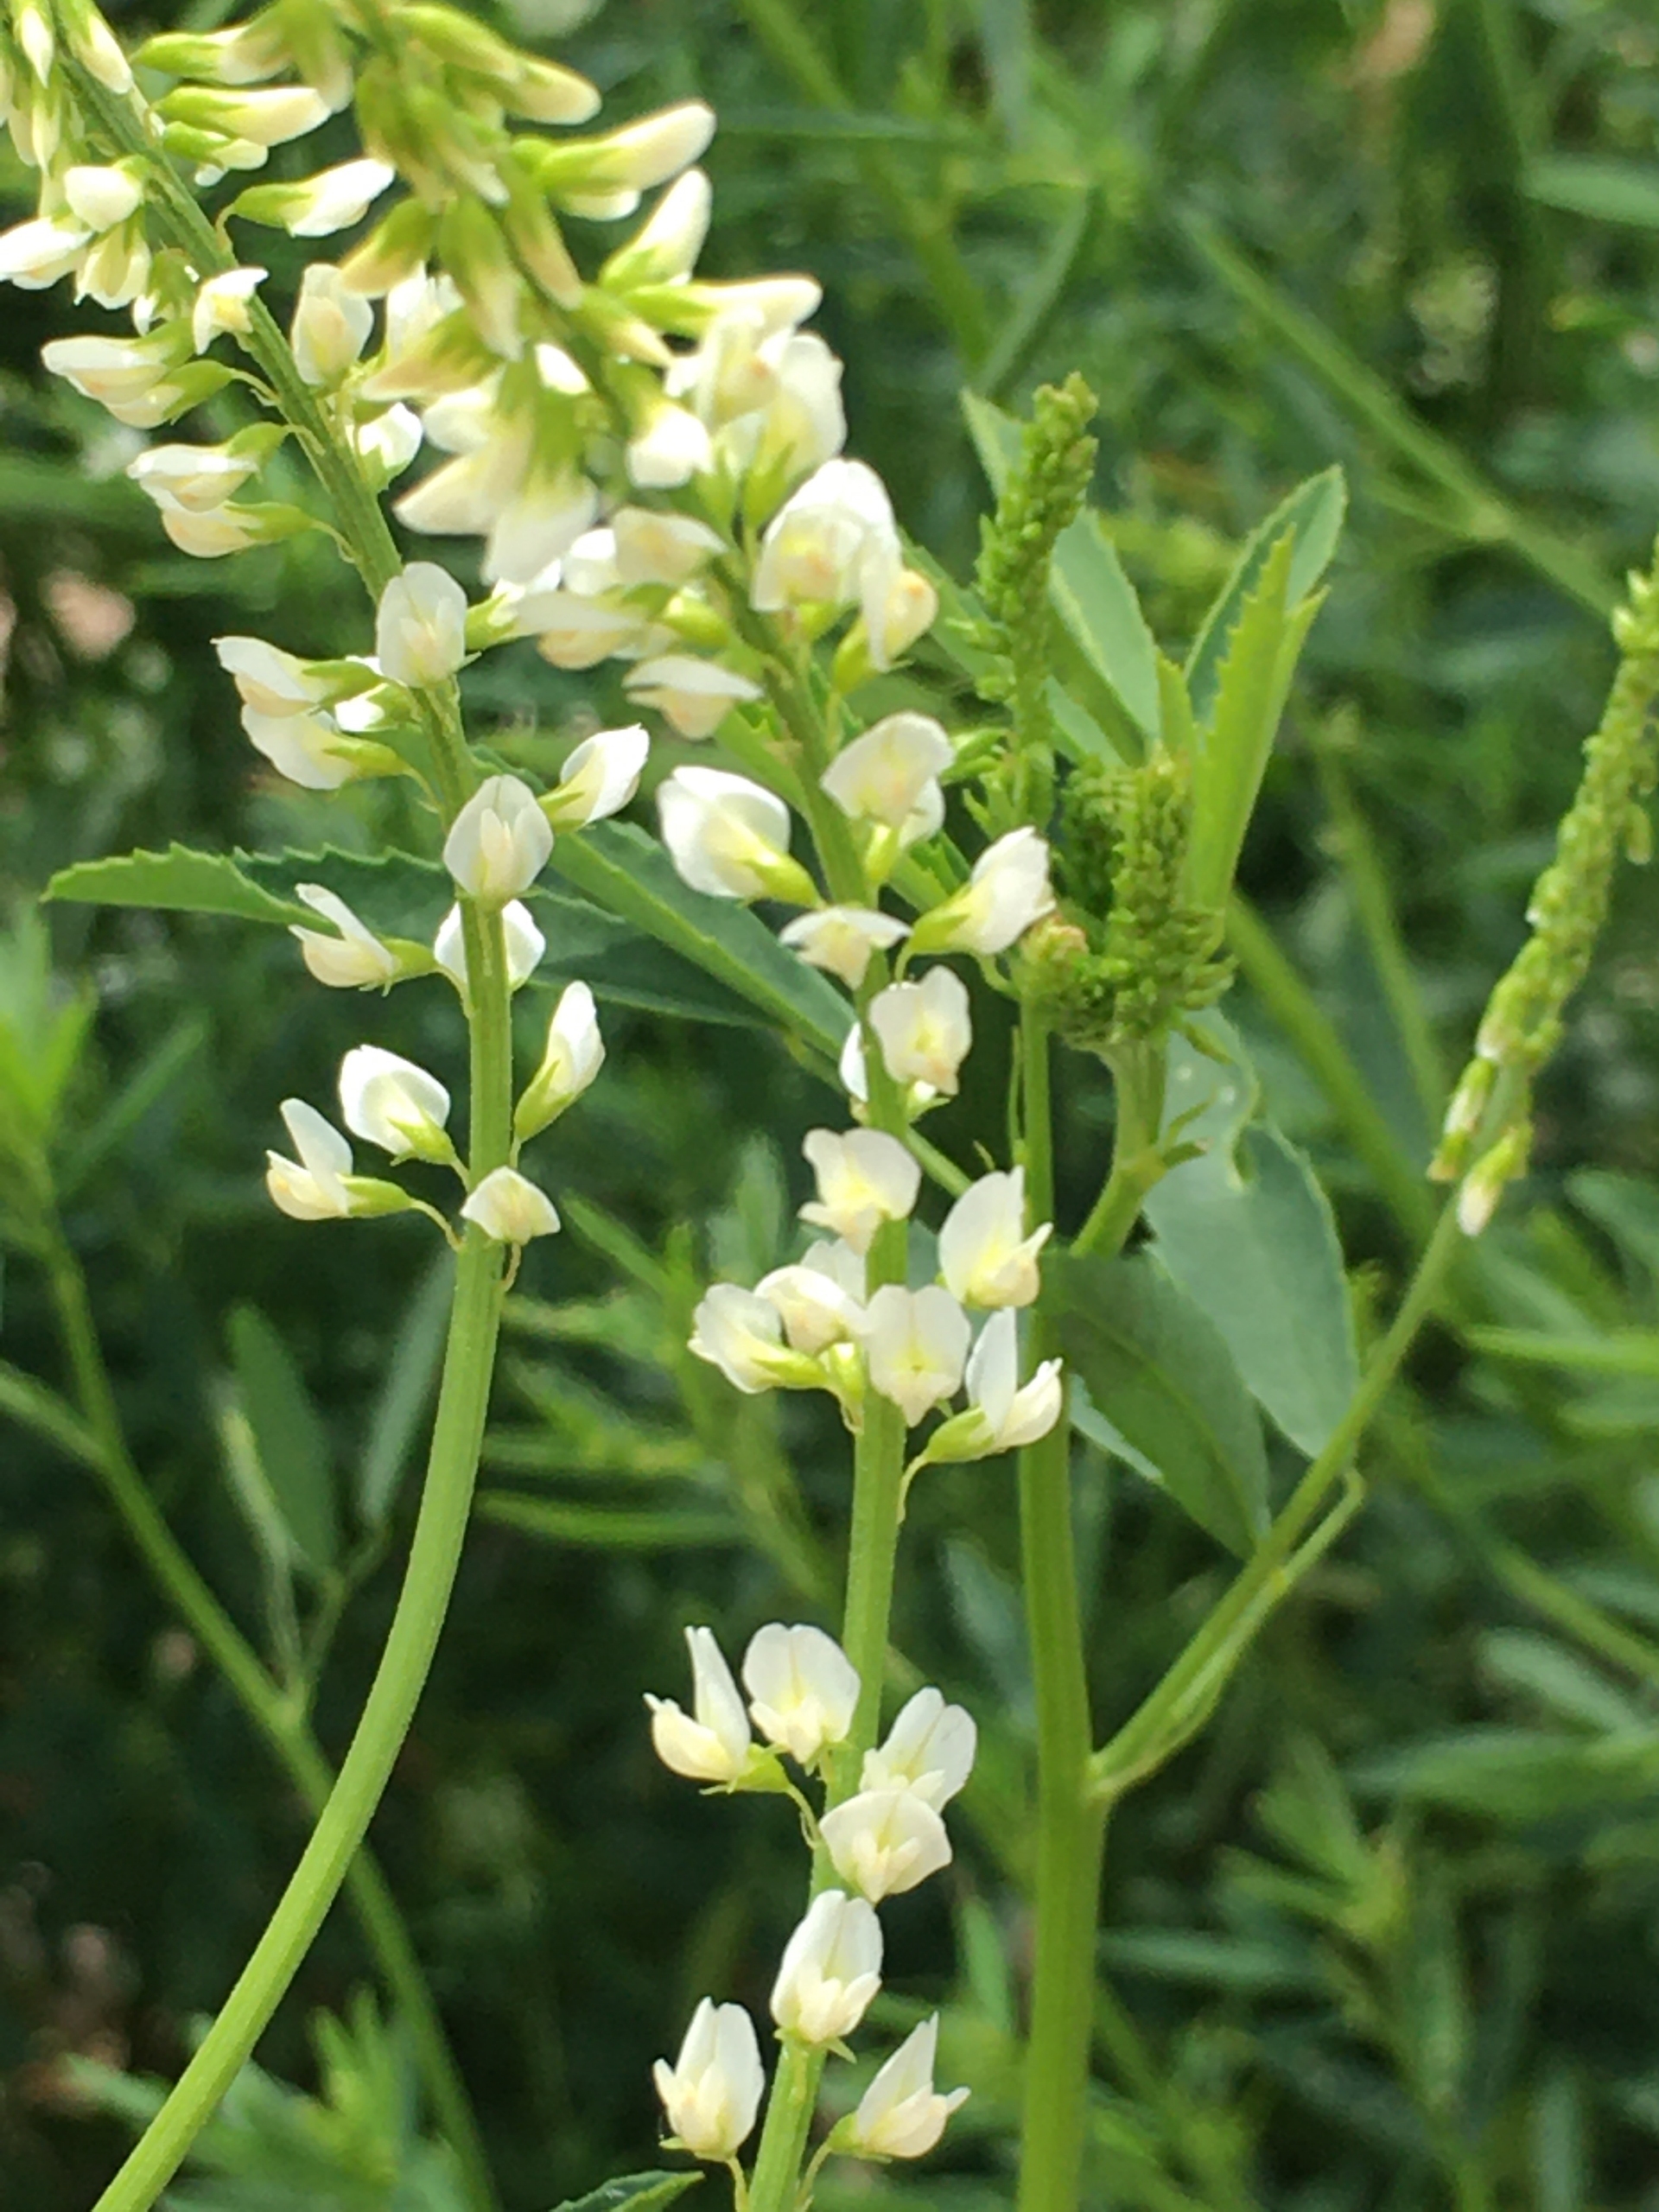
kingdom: Plantae
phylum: Tracheophyta
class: Magnoliopsida
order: Fabales
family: Fabaceae
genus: Melilotus
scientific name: Melilotus albus
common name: Hvid stenkløver
